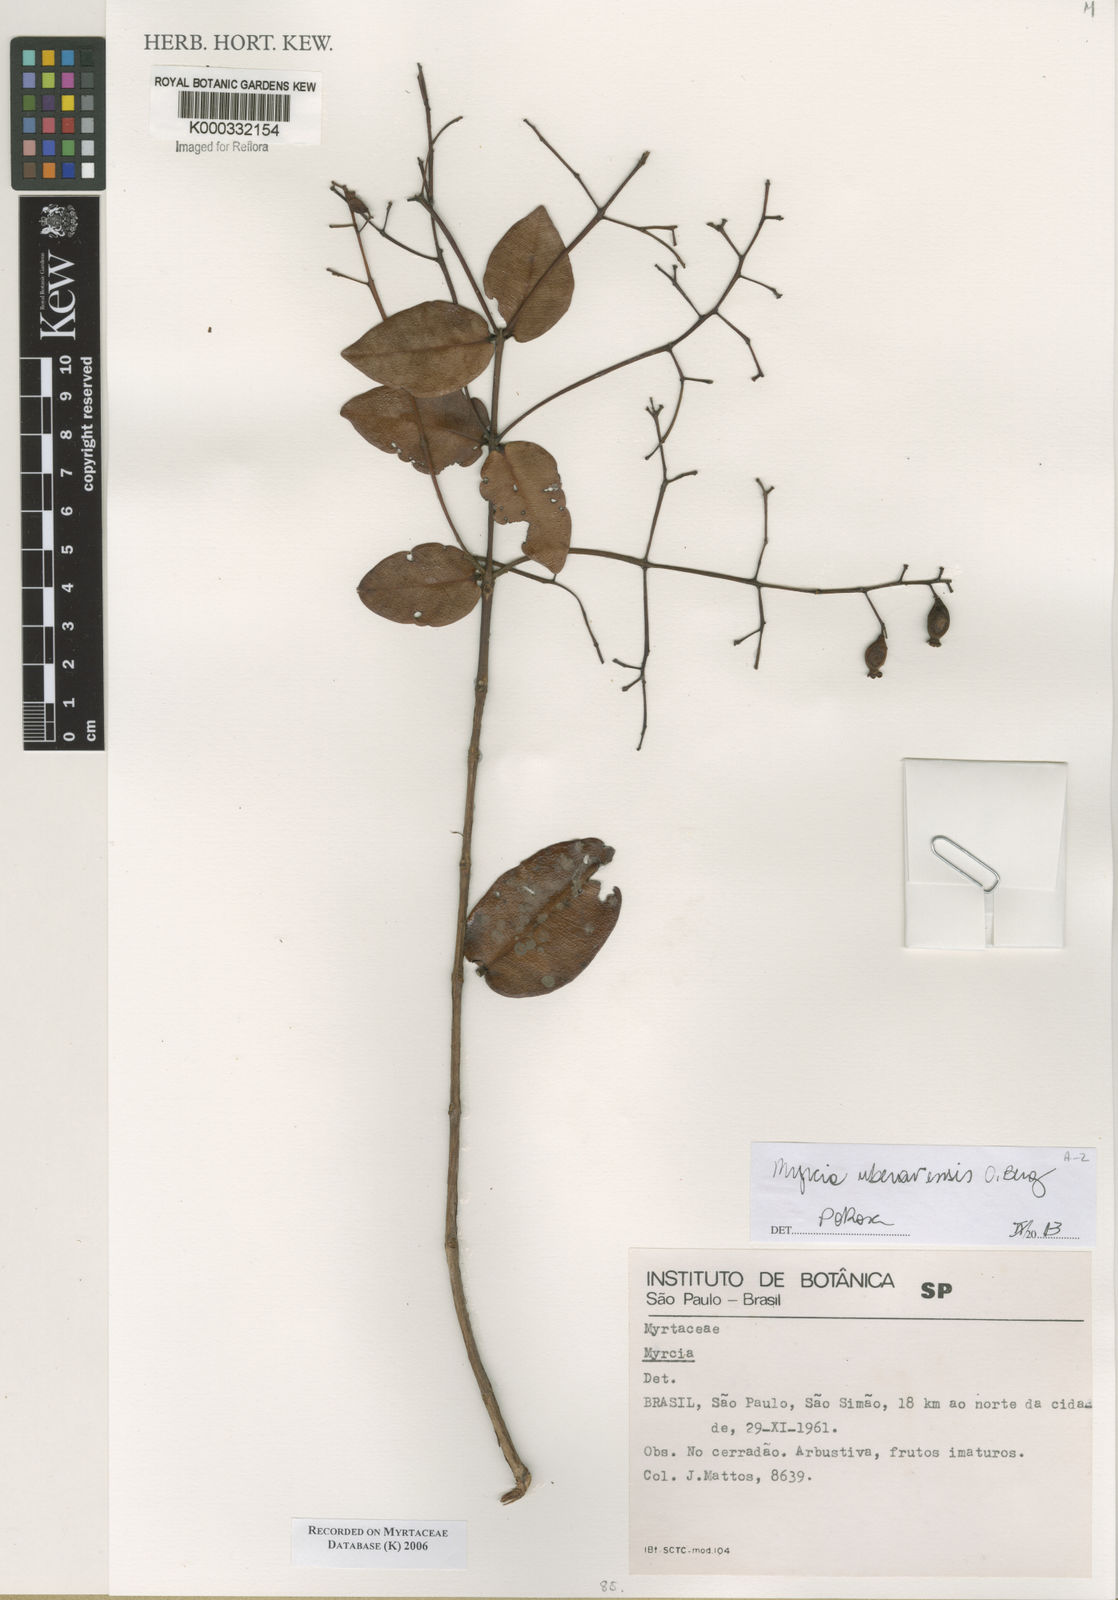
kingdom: Plantae
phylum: Tracheophyta
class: Magnoliopsida
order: Myrtales
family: Myrtaceae
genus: Myrcia
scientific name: Myrcia
